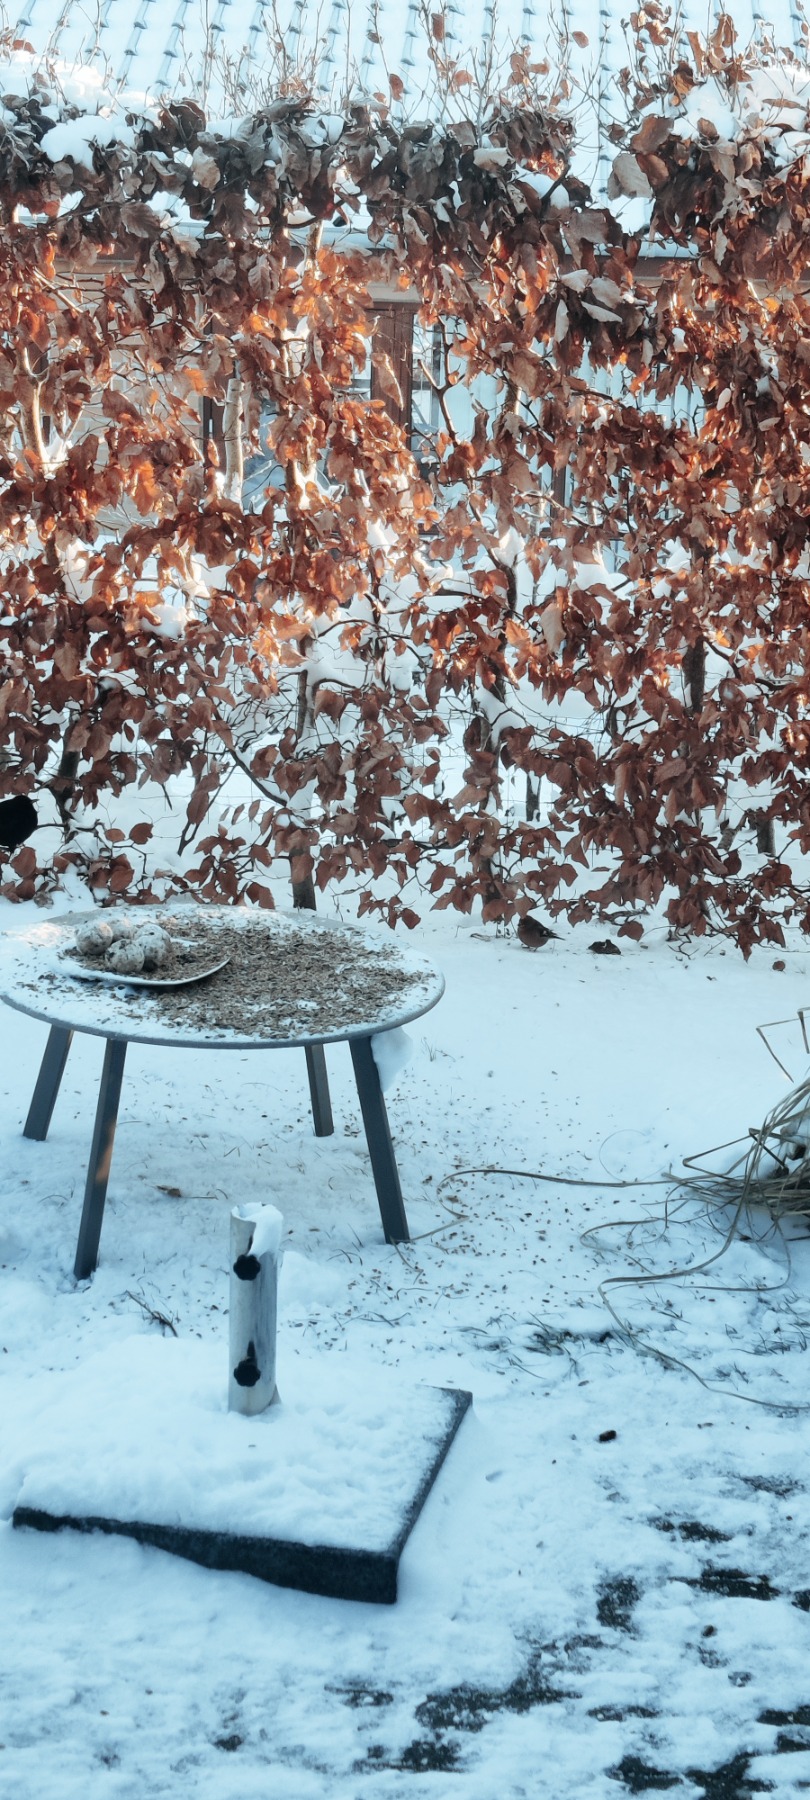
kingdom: Animalia
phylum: Chordata
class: Aves
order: Passeriformes
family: Fringillidae
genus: Fringilla
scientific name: Fringilla coelebs
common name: Bogfinke
